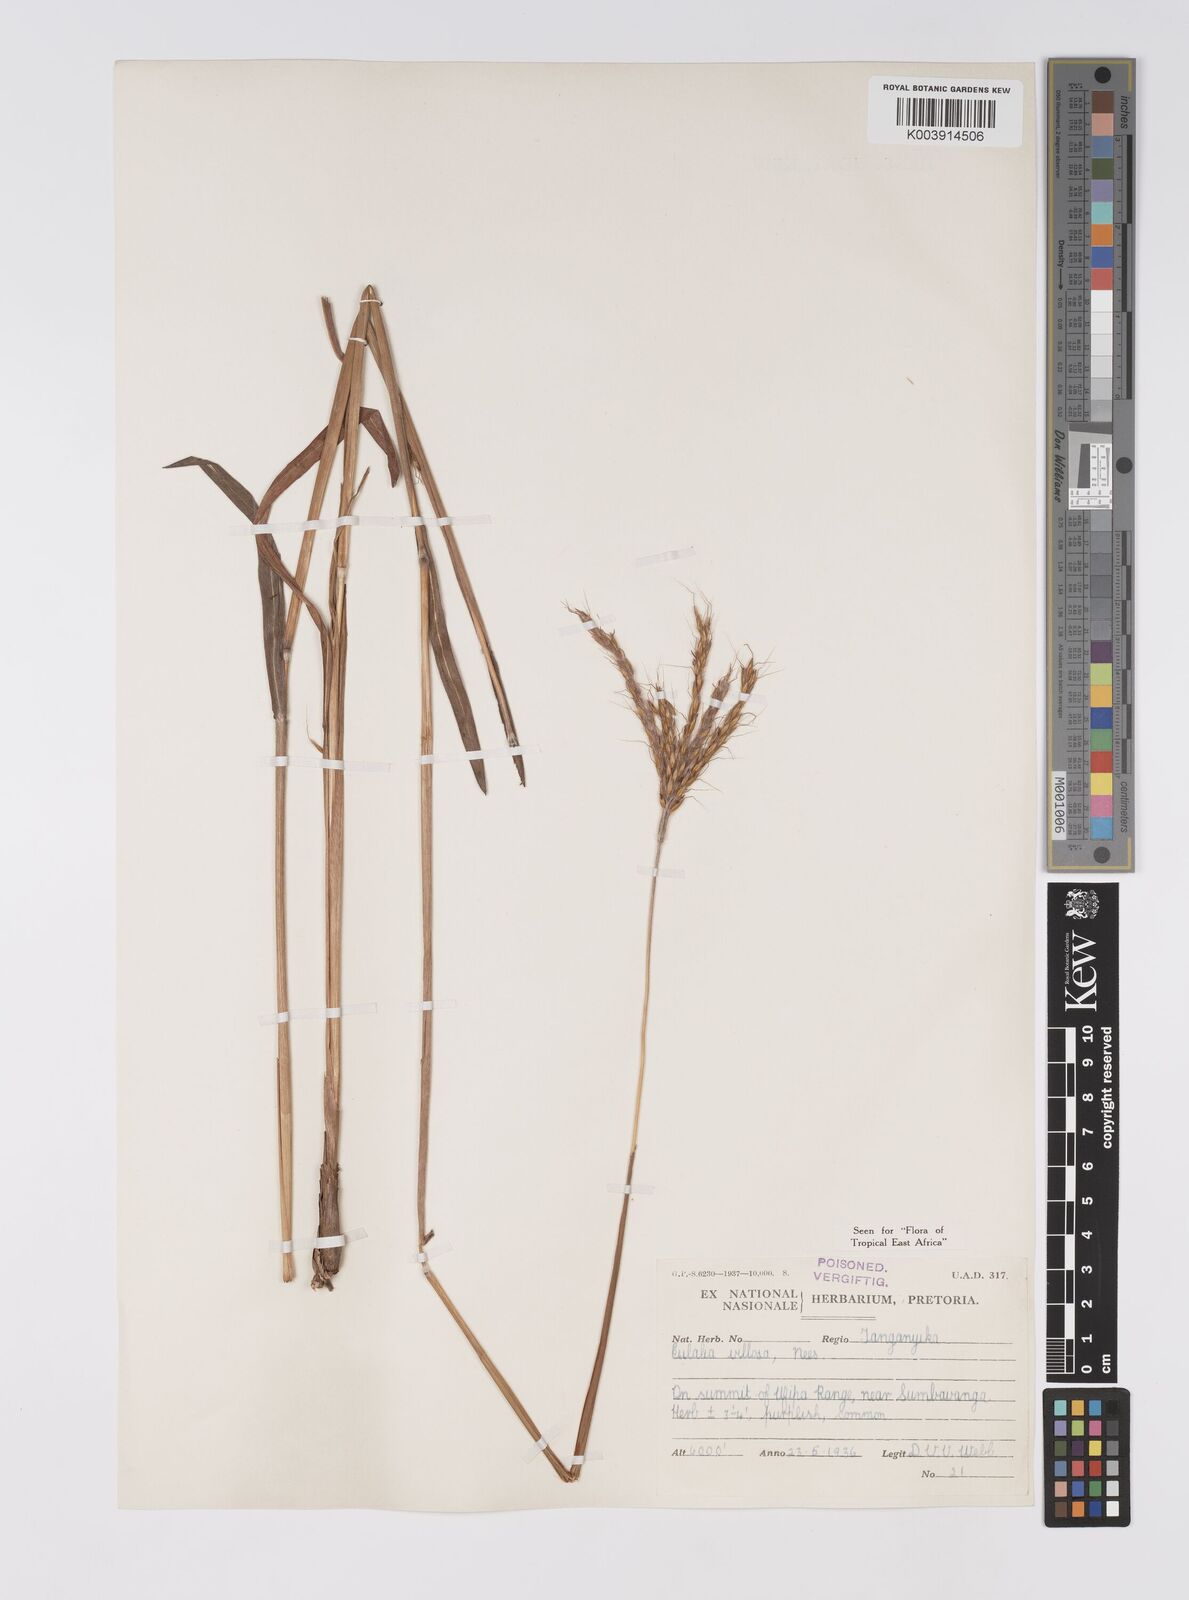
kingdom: Plantae
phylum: Tracheophyta
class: Liliopsida
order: Poales
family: Poaceae
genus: Eulalia
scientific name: Eulalia villosa
